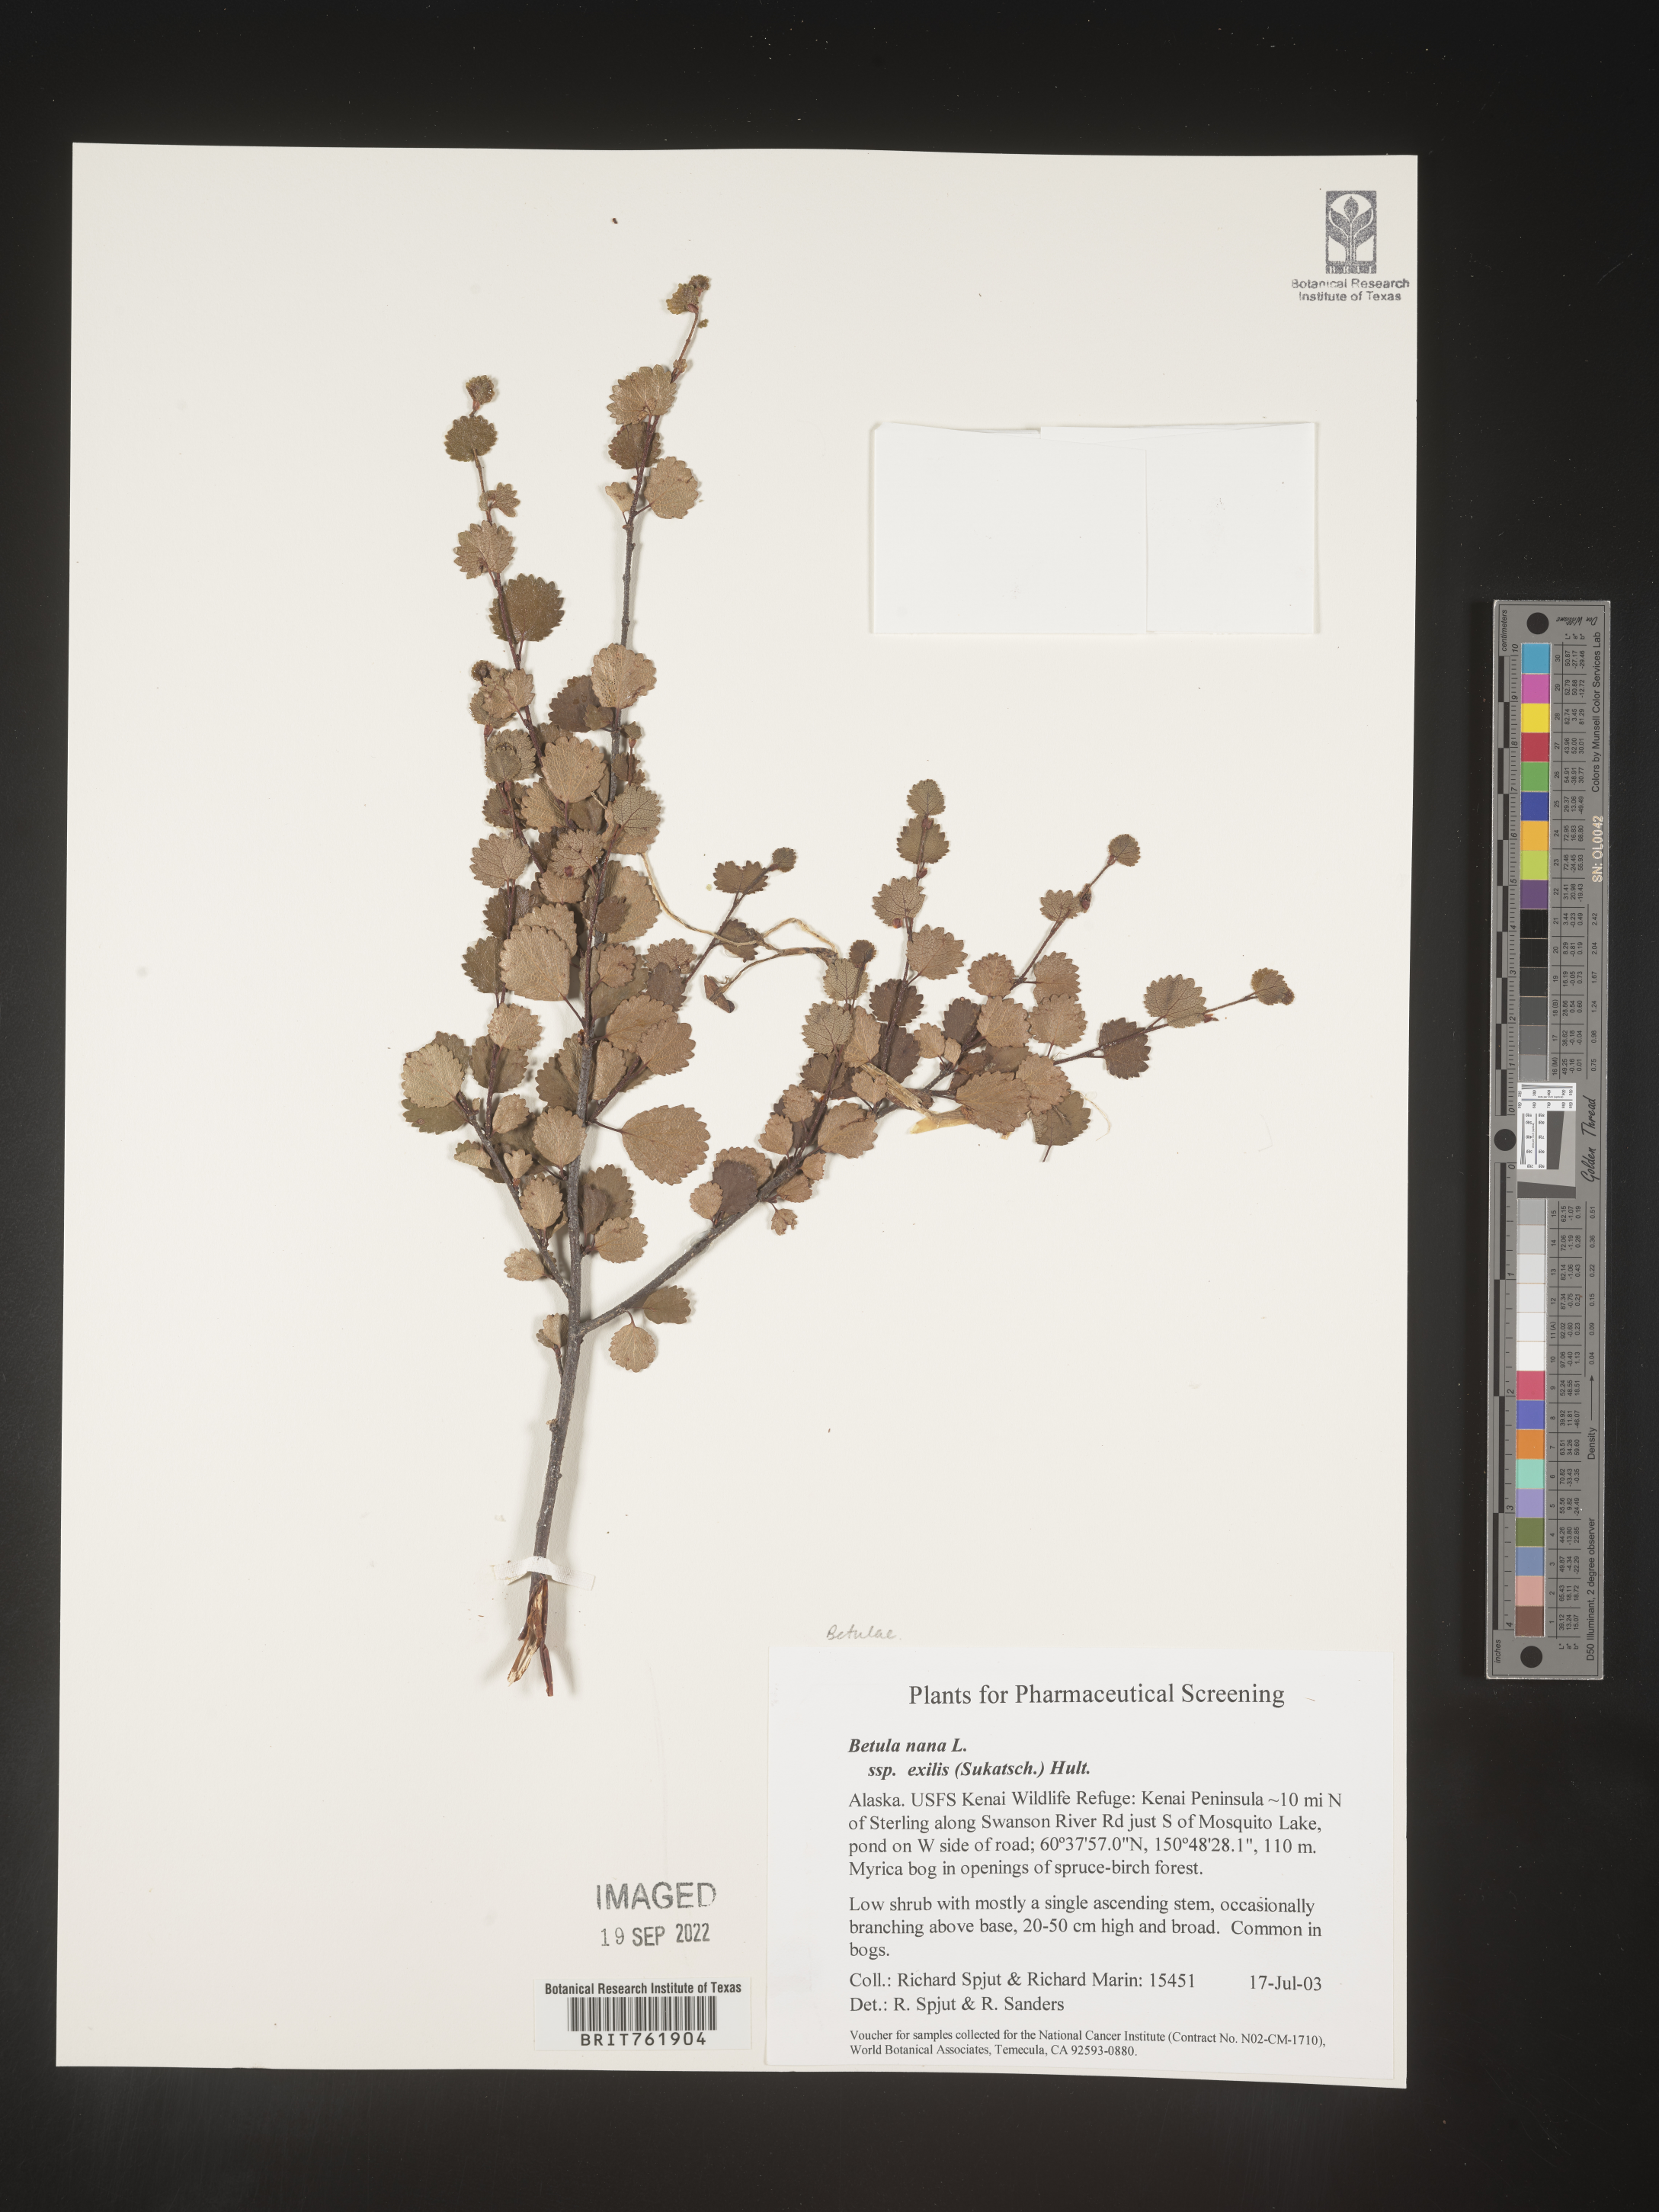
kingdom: Plantae
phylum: Tracheophyta
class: Magnoliopsida
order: Fagales
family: Betulaceae
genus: Betula
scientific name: Betula nana
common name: Arctic dwarf birch
